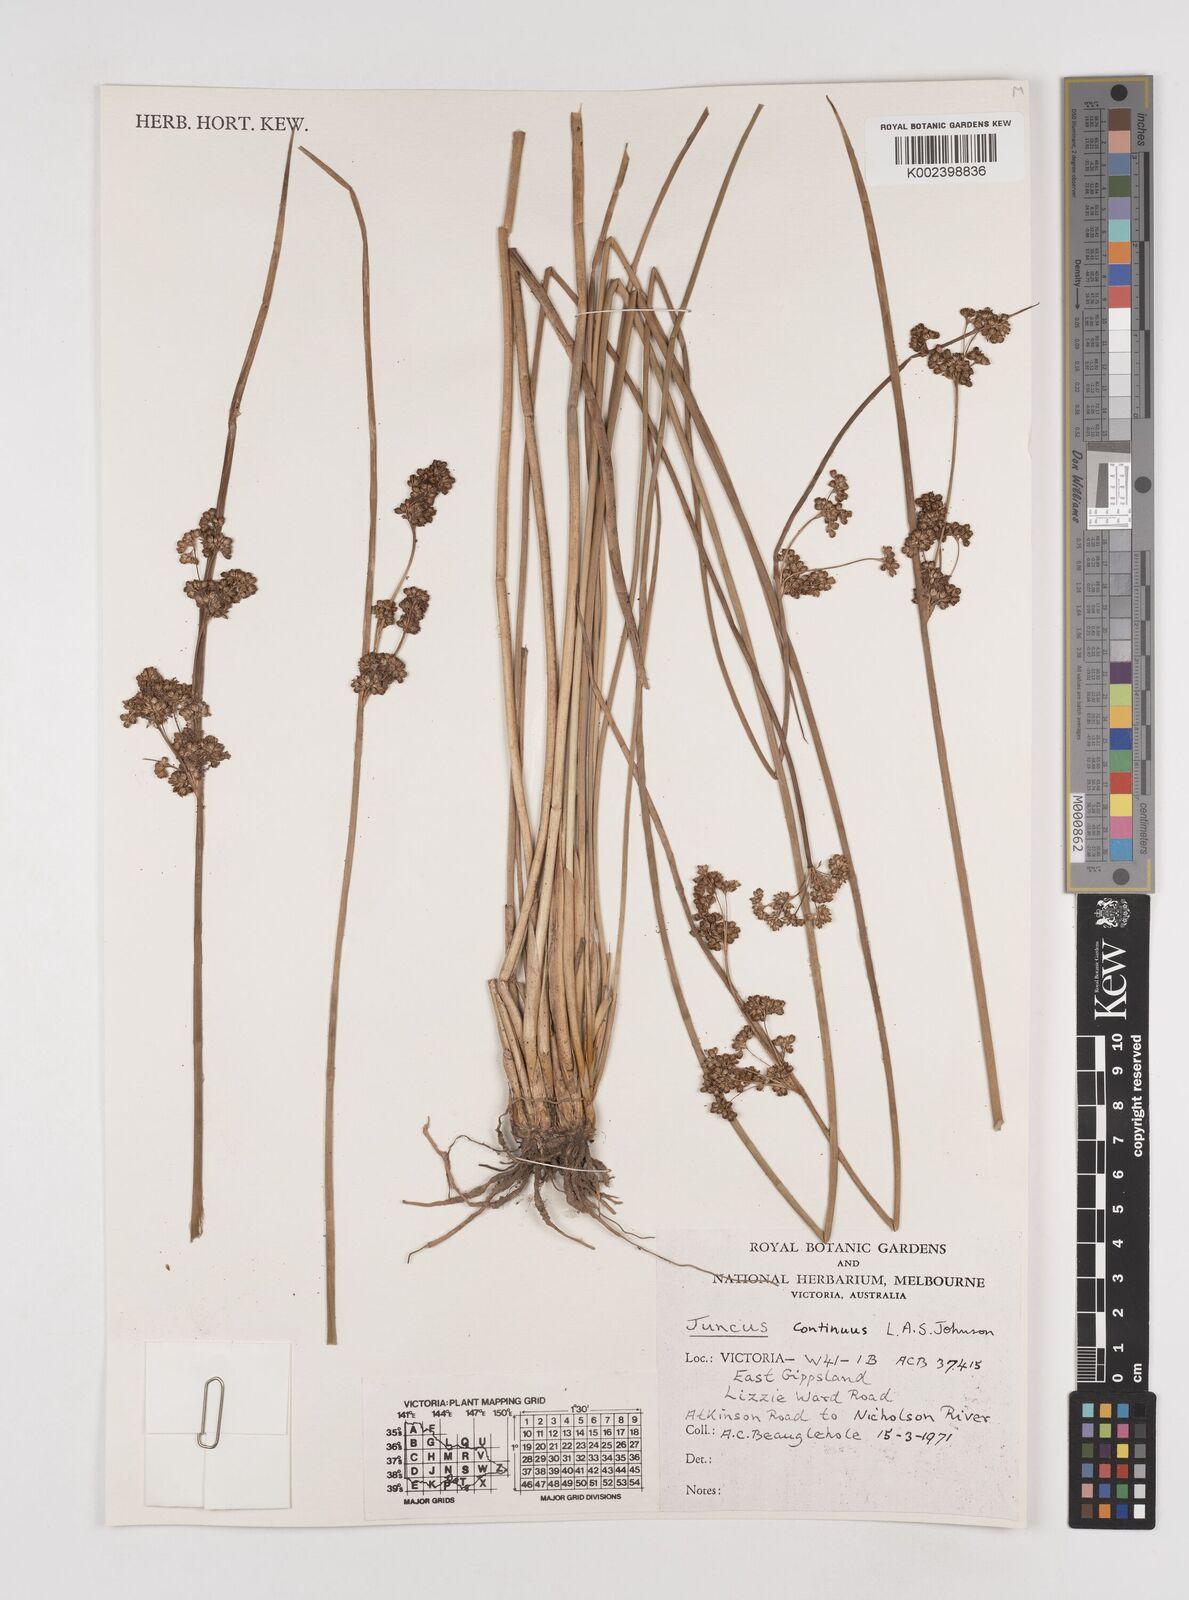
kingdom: Plantae
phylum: Tracheophyta
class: Liliopsida
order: Poales
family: Juncaceae
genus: Juncus
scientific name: Juncus continuus
